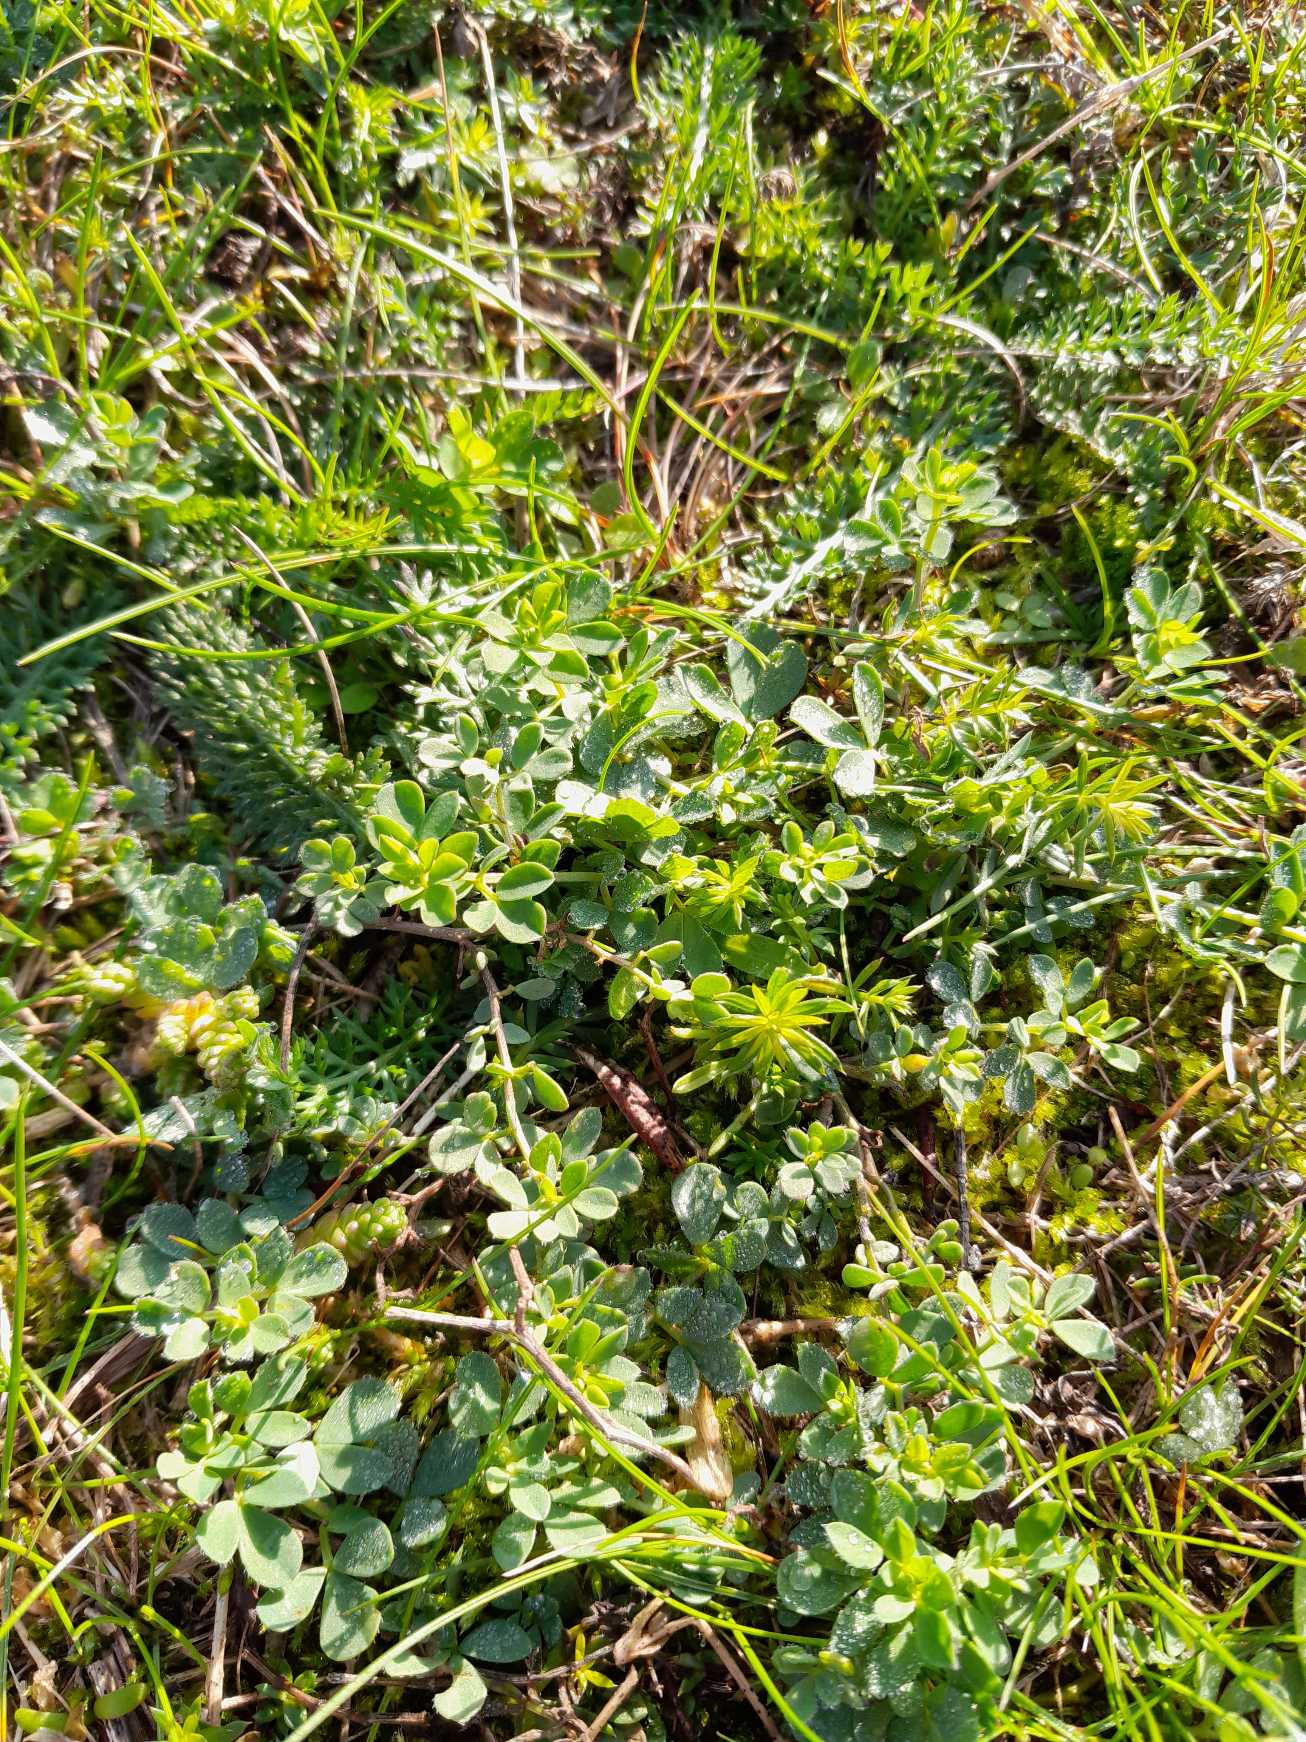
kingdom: Plantae
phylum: Tracheophyta
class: Magnoliopsida
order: Fabales
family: Fabaceae
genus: Lotus
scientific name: Lotus corniculatus
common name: Almindelig kællingetand
